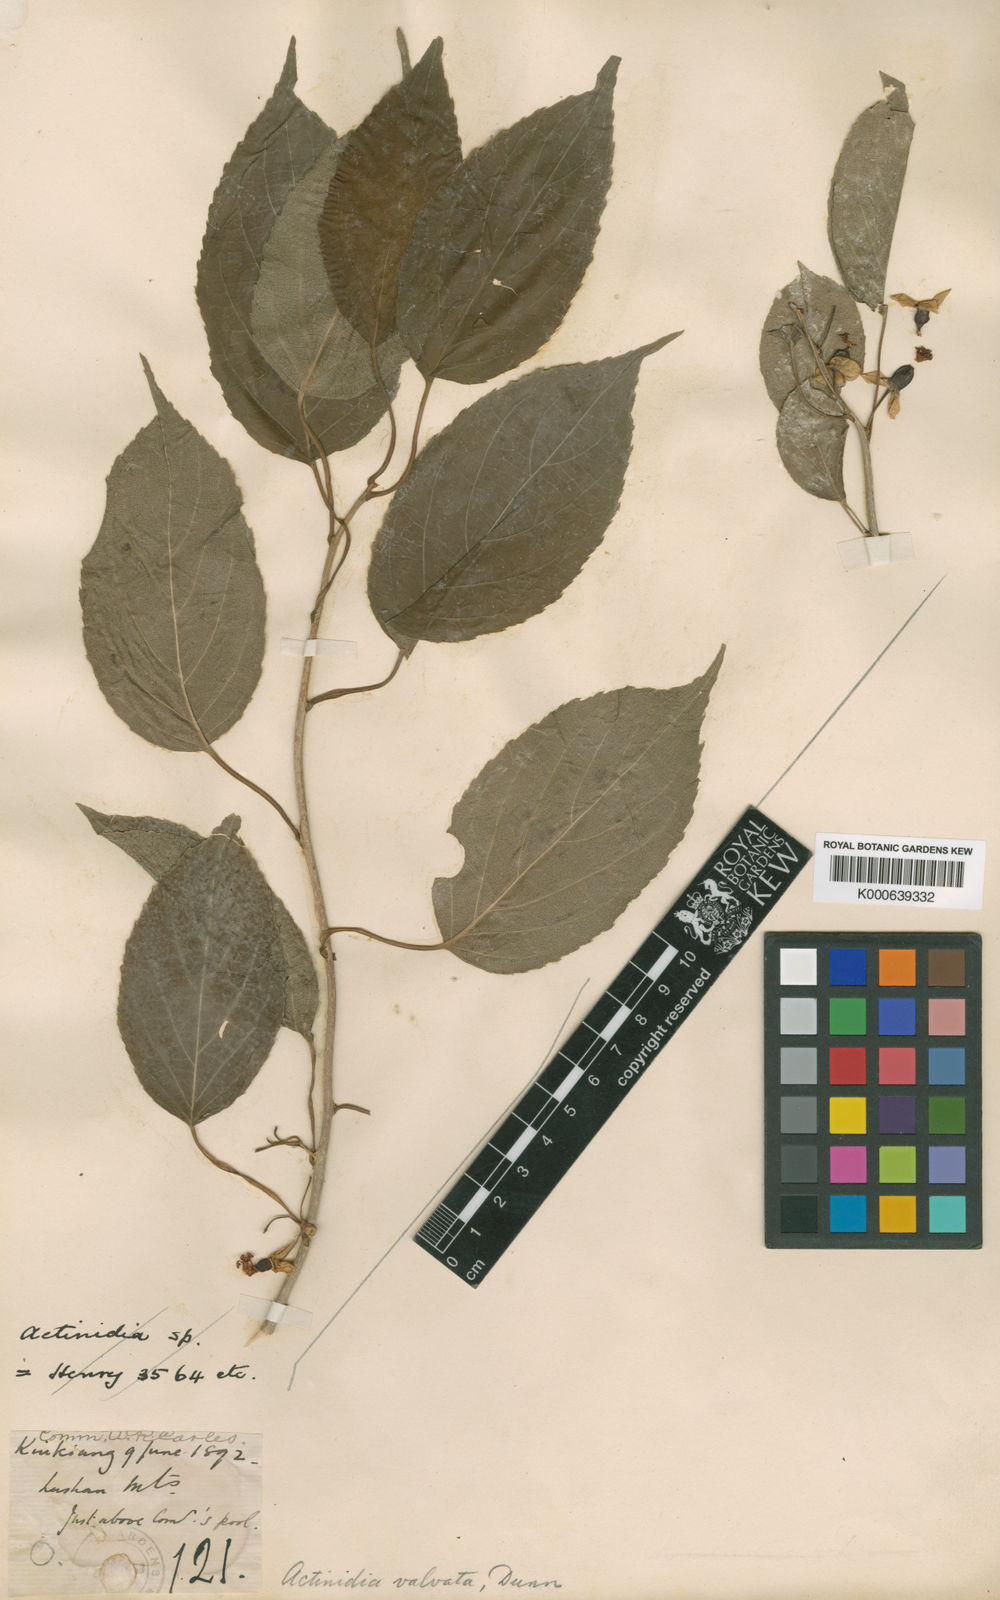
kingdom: Plantae
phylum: Tracheophyta
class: Magnoliopsida
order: Ericales
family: Actinidiaceae
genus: Actinidia
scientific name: Actinidia valvata
